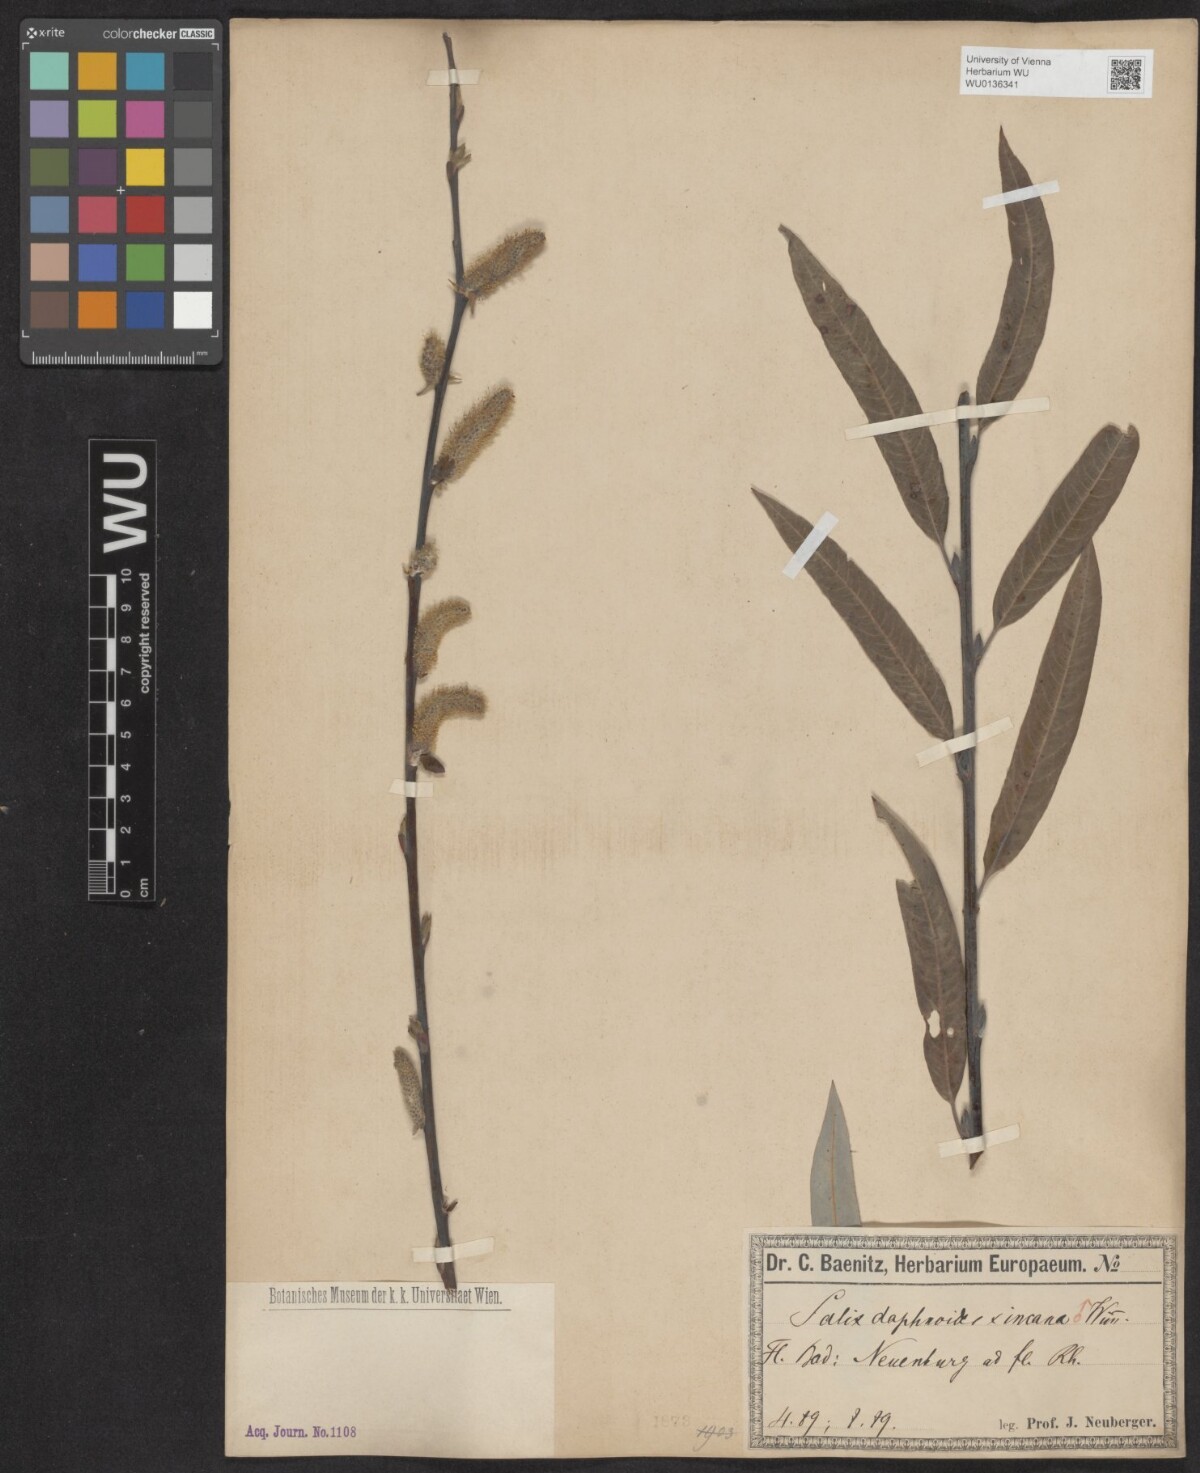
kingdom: Plantae
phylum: Tracheophyta
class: Magnoliopsida
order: Malpighiales
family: Salicaceae
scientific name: Salicaceae
